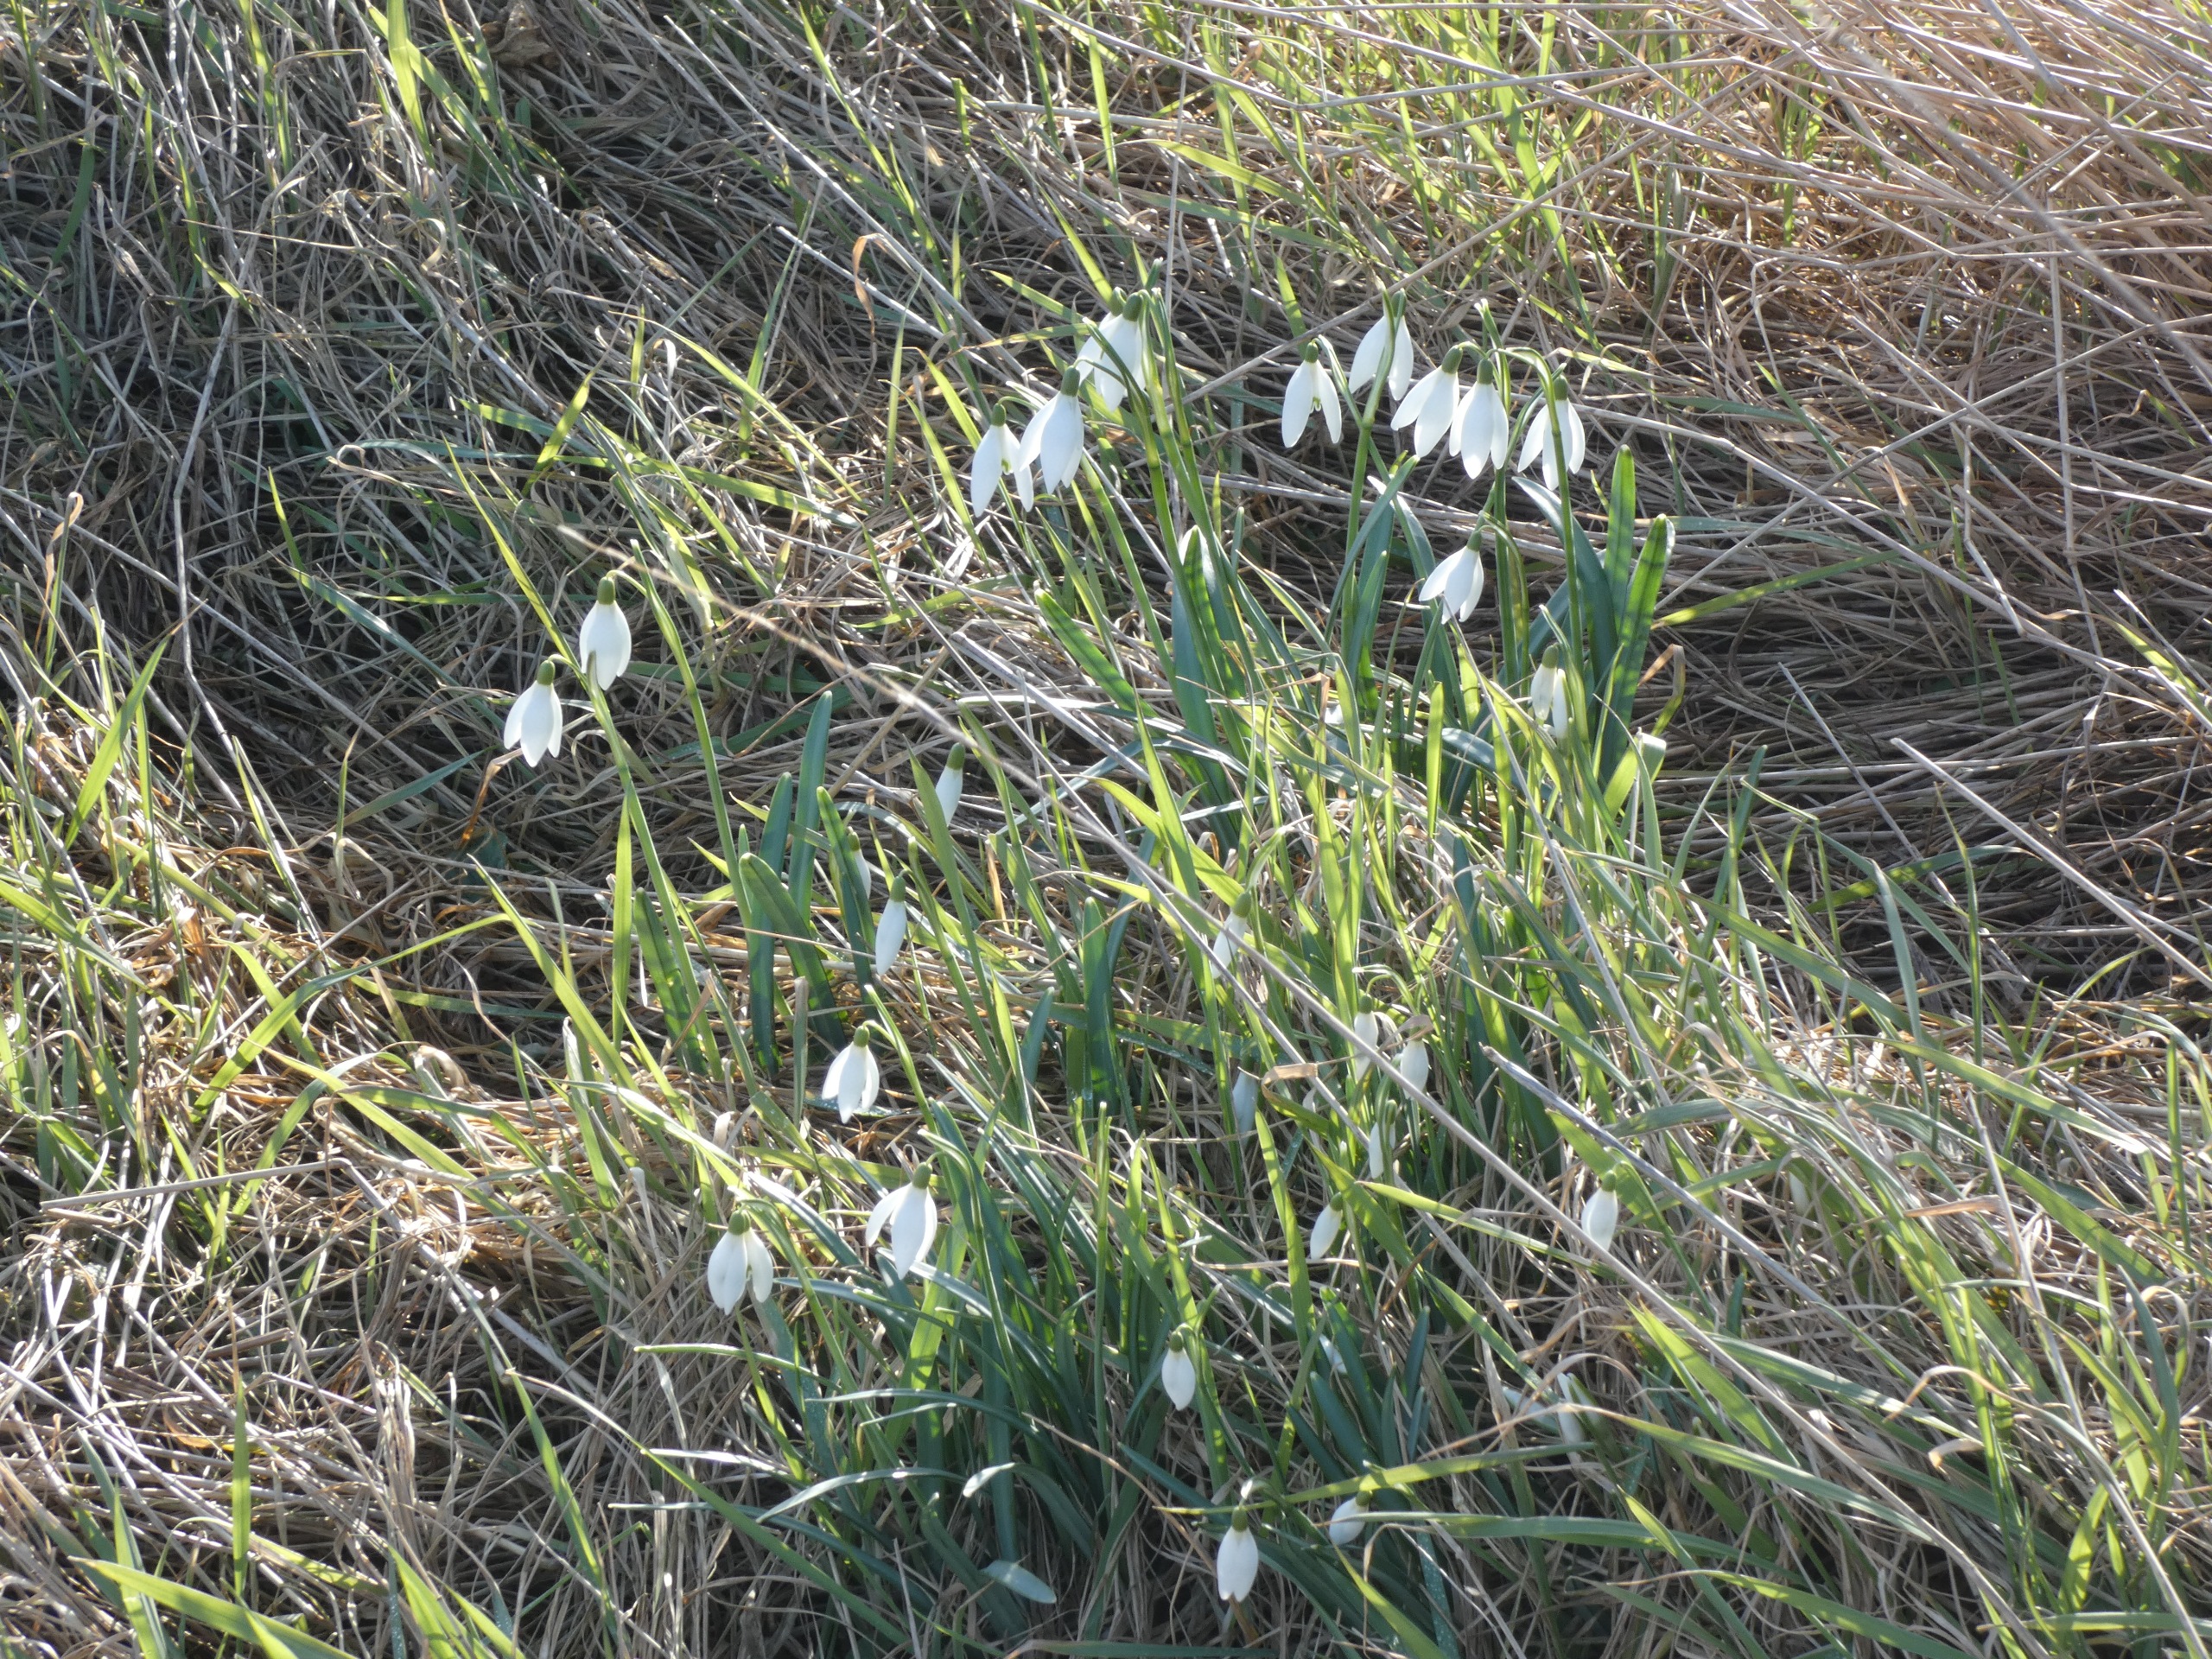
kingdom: Plantae
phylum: Tracheophyta
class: Liliopsida
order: Asparagales
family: Amaryllidaceae
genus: Galanthus
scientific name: Galanthus nivalis
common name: Vintergæk
